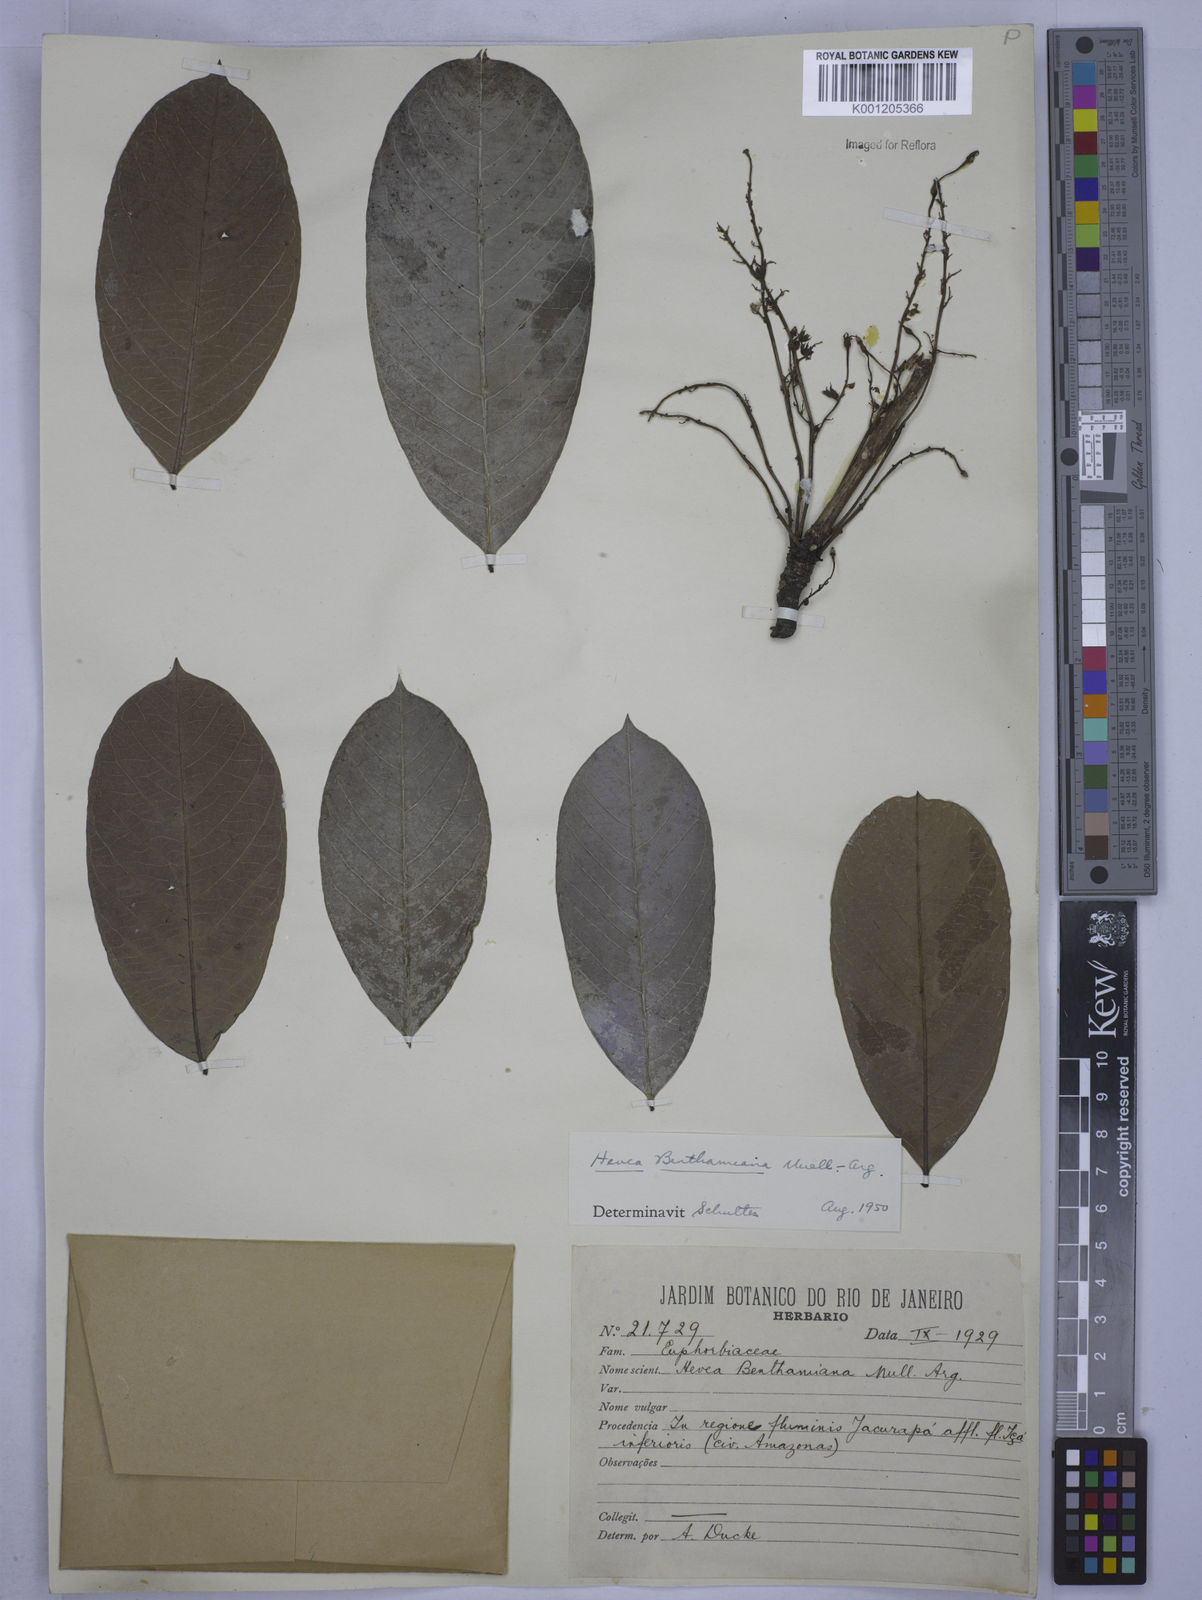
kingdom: Plantae
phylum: Tracheophyta
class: Magnoliopsida
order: Malpighiales
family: Euphorbiaceae
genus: Hevea
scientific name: Hevea
